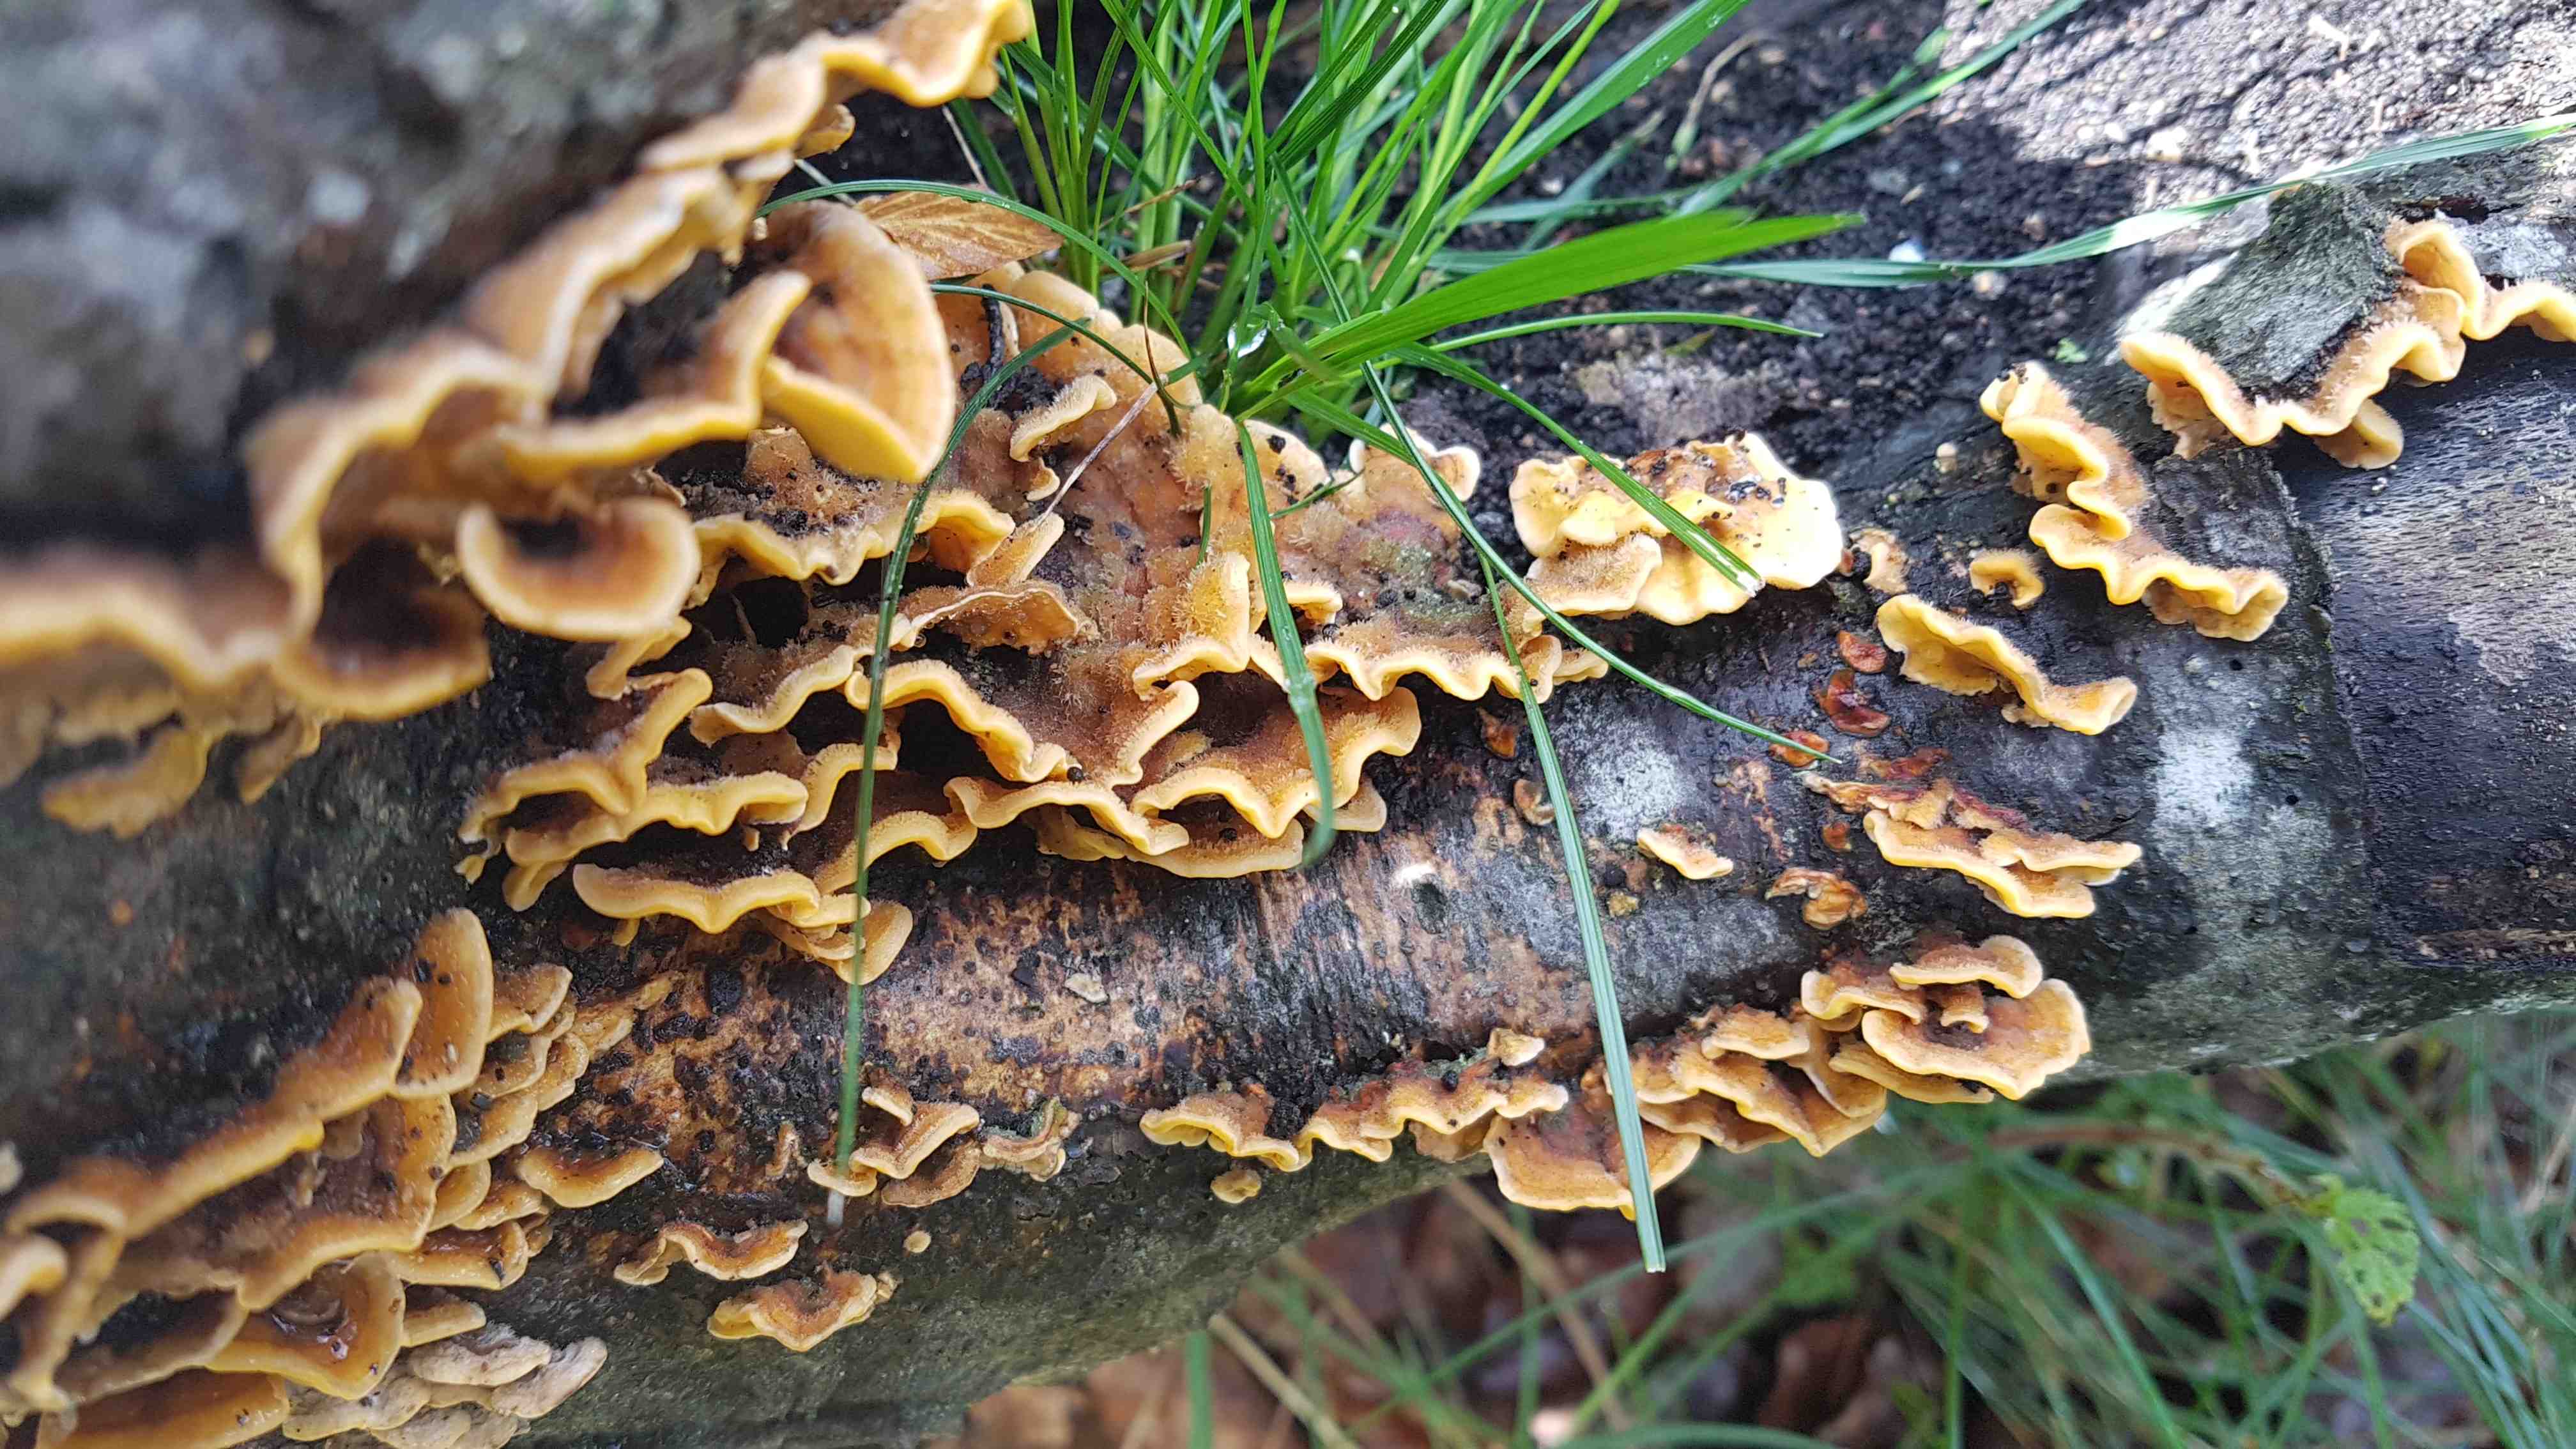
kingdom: Fungi
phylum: Basidiomycota
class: Agaricomycetes
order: Russulales
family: Stereaceae
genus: Stereum
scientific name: Stereum hirsutum
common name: håret lædersvamp
